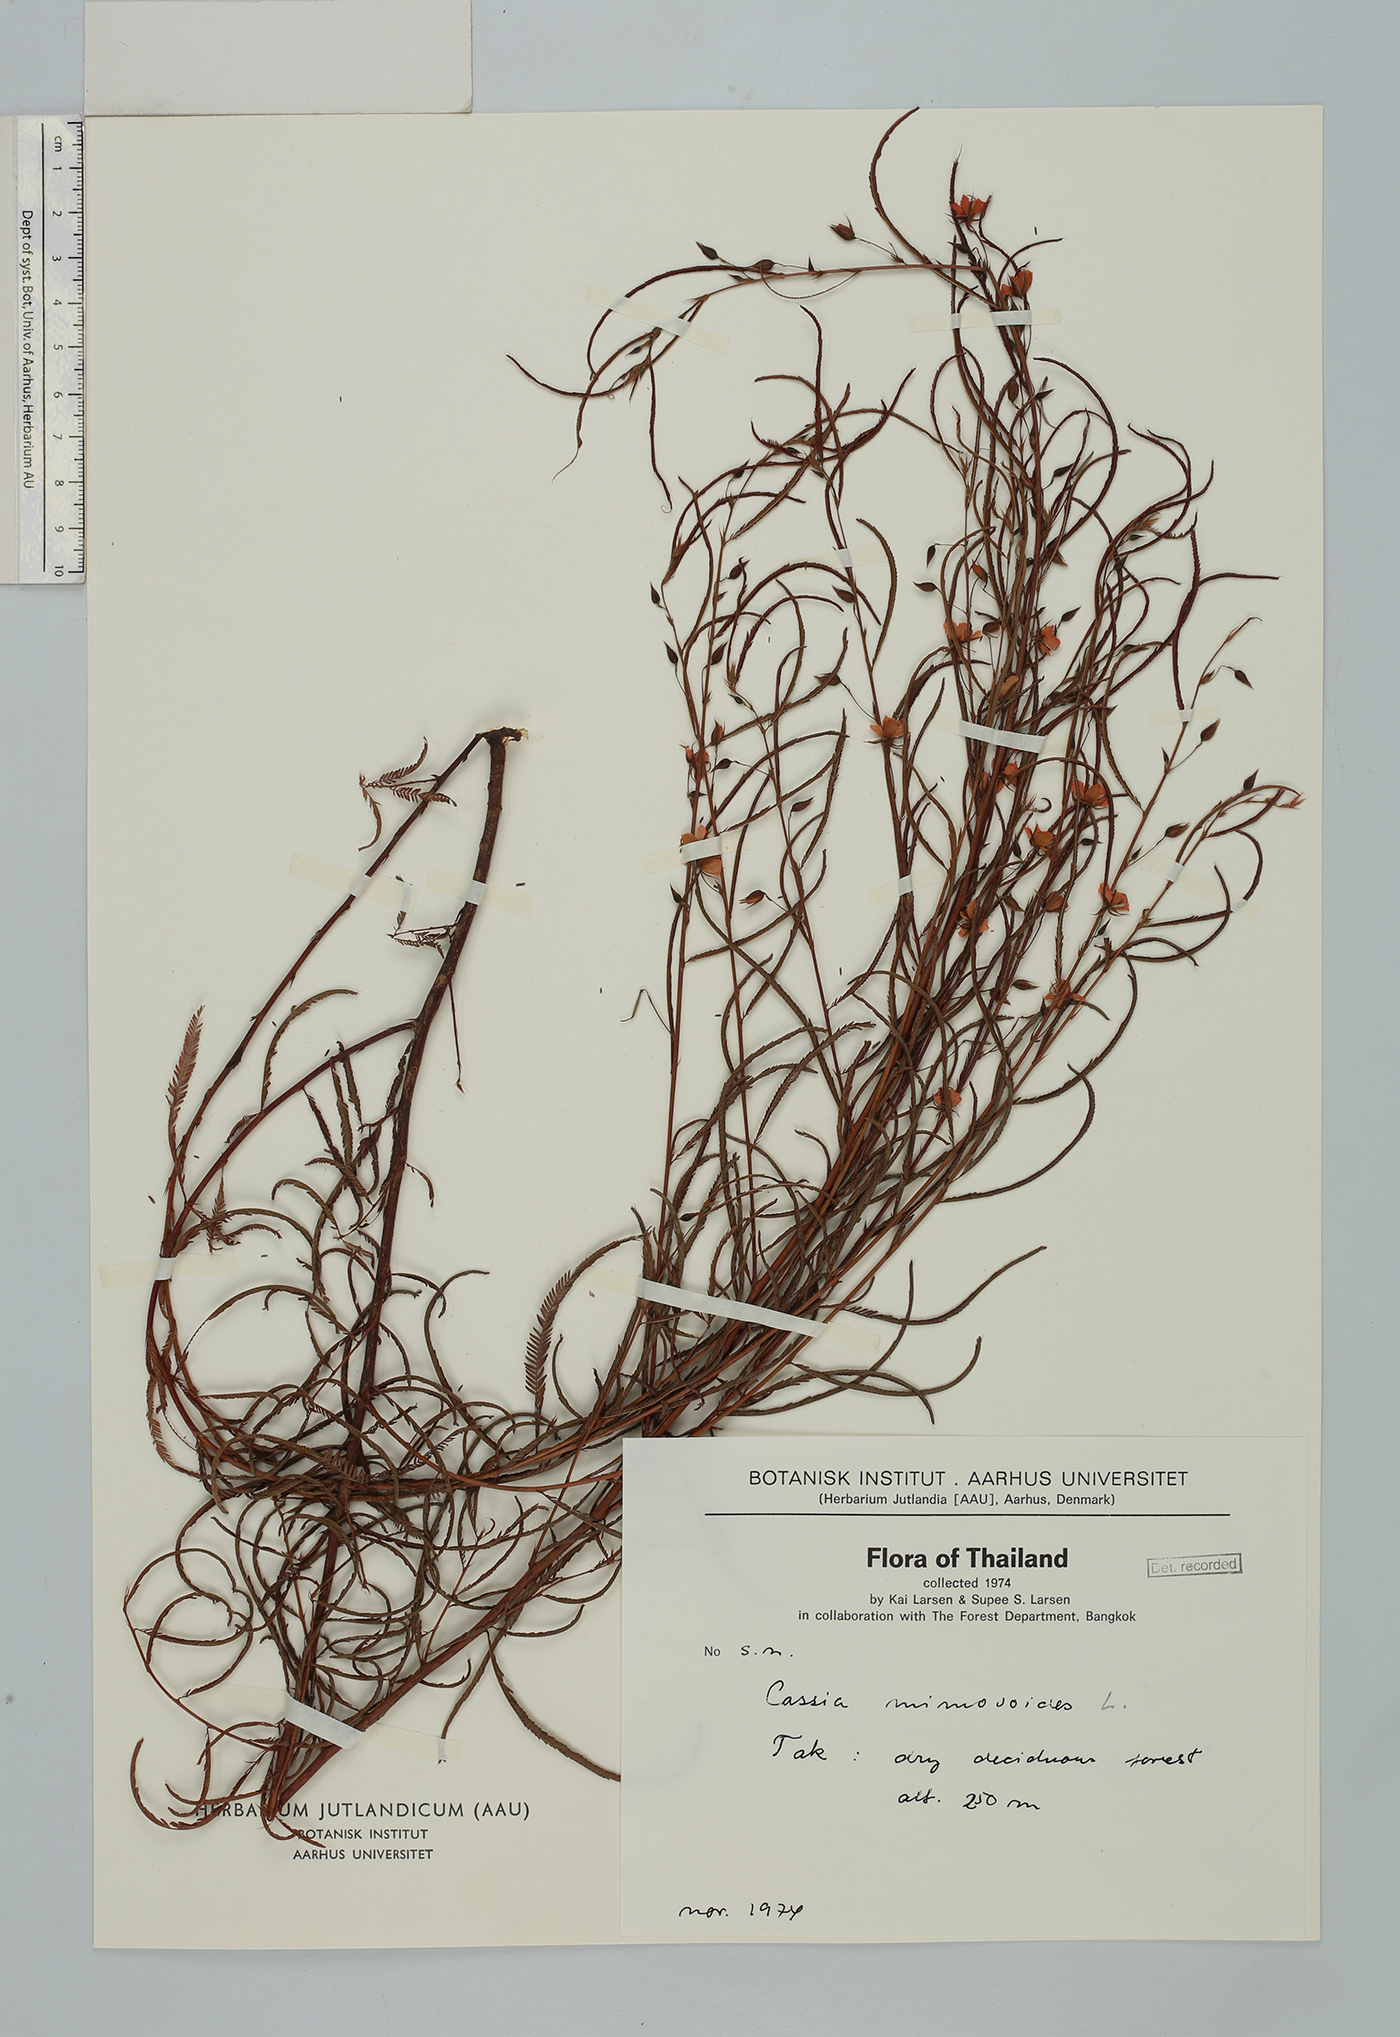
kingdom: Plantae
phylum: Tracheophyta
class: Magnoliopsida
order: Fabales
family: Fabaceae
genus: Chamaecrista
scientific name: Chamaecrista mimosoides
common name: Fish-bone cassia
